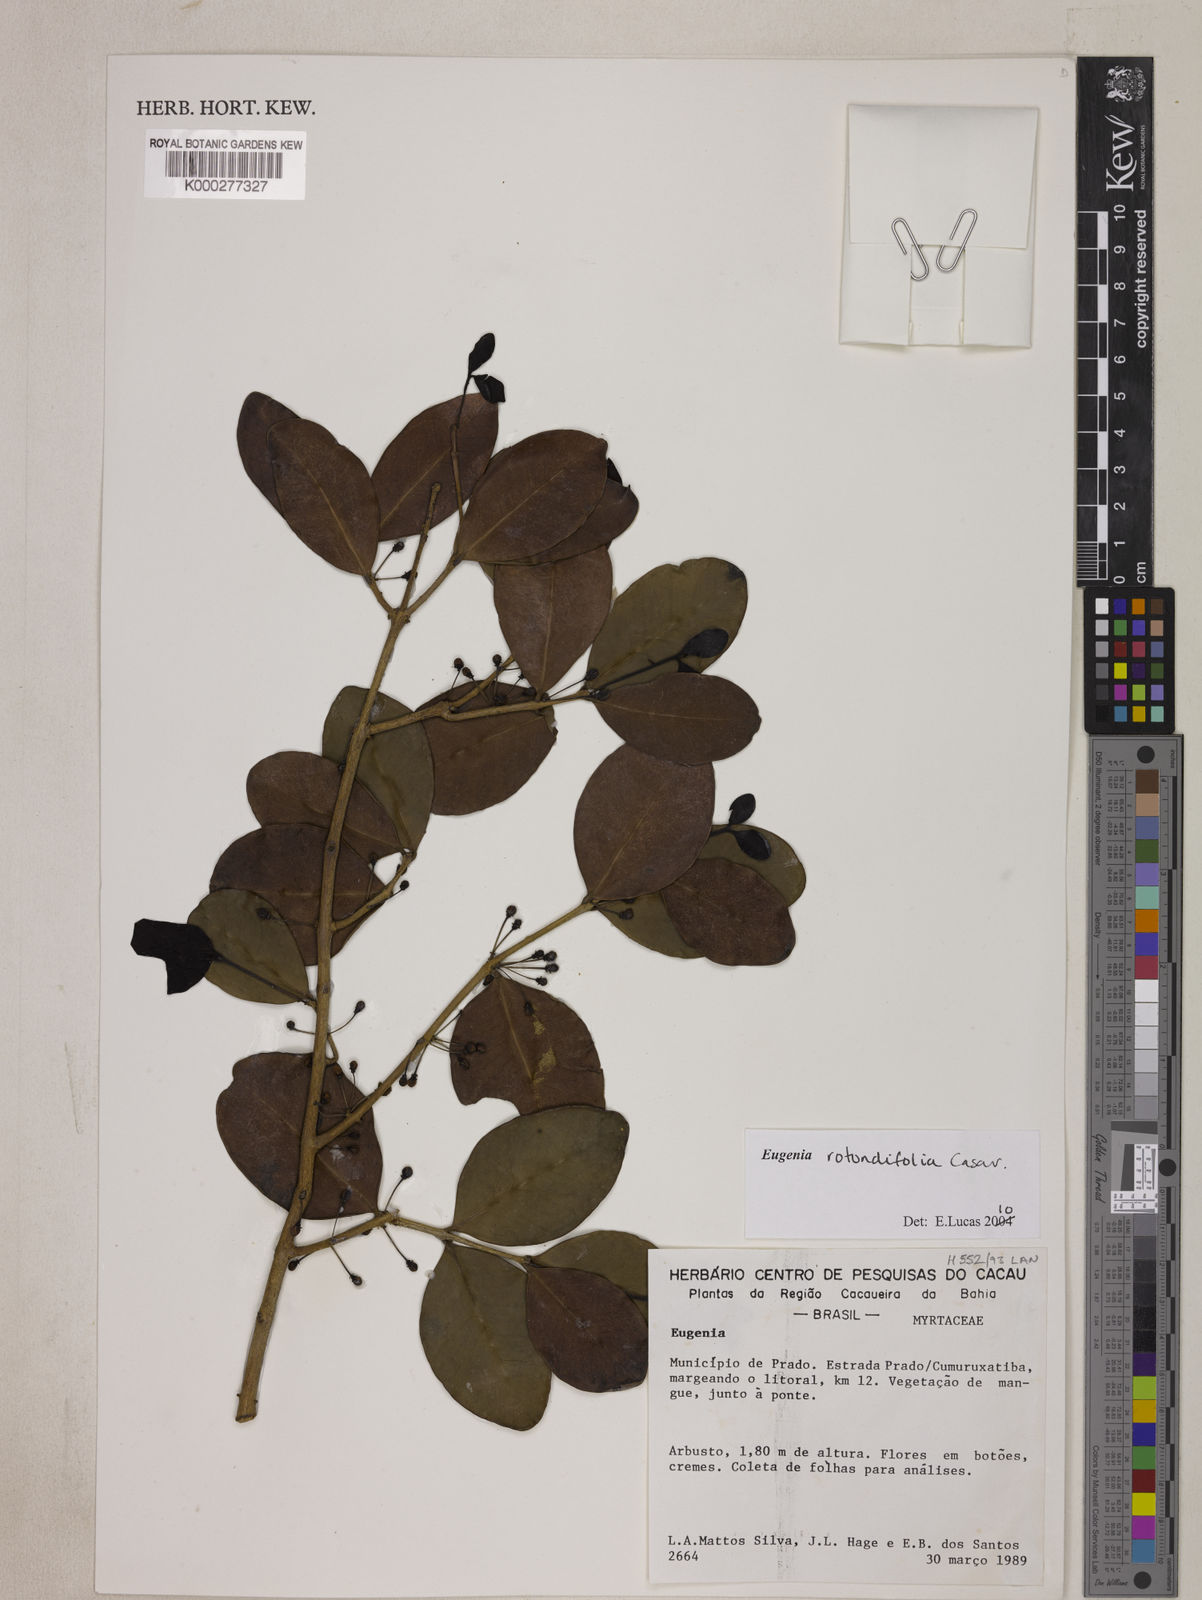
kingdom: Plantae
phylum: Tracheophyta
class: Magnoliopsida
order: Myrtales
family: Myrtaceae
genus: Eugenia
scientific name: Eugenia umbelliflora
